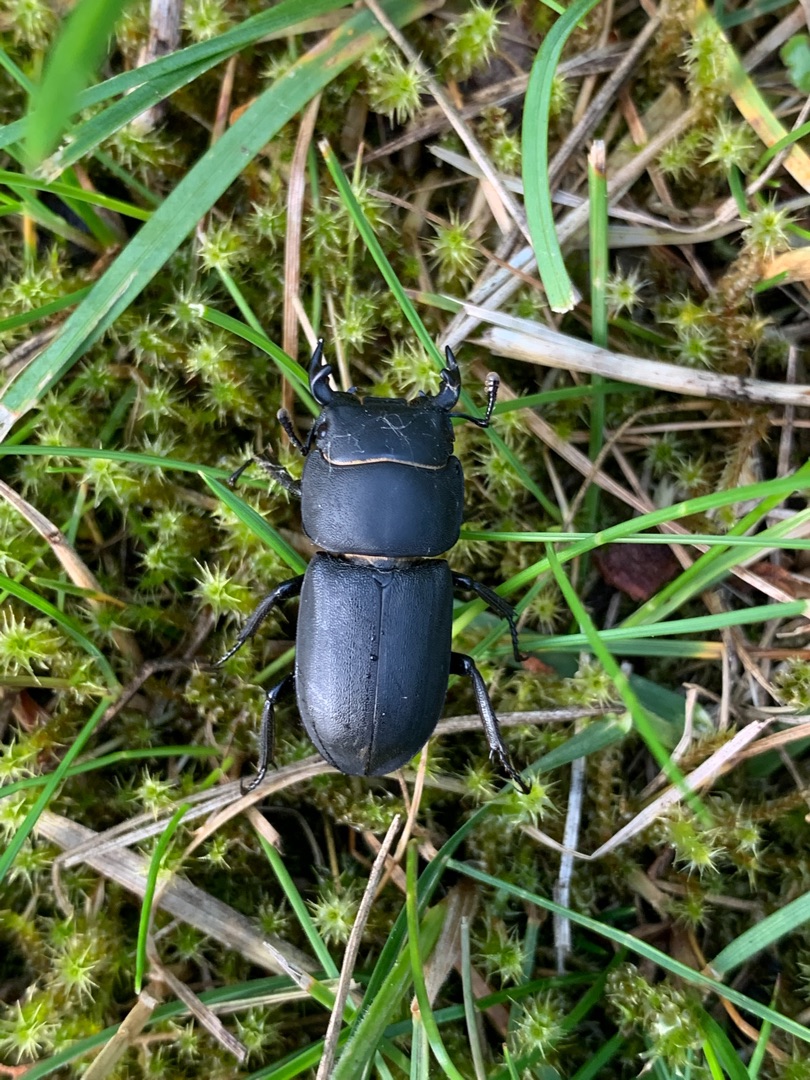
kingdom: Animalia
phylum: Arthropoda
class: Insecta
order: Coleoptera
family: Lucanidae
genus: Dorcus
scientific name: Dorcus parallelipipedus
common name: Bøghjort
